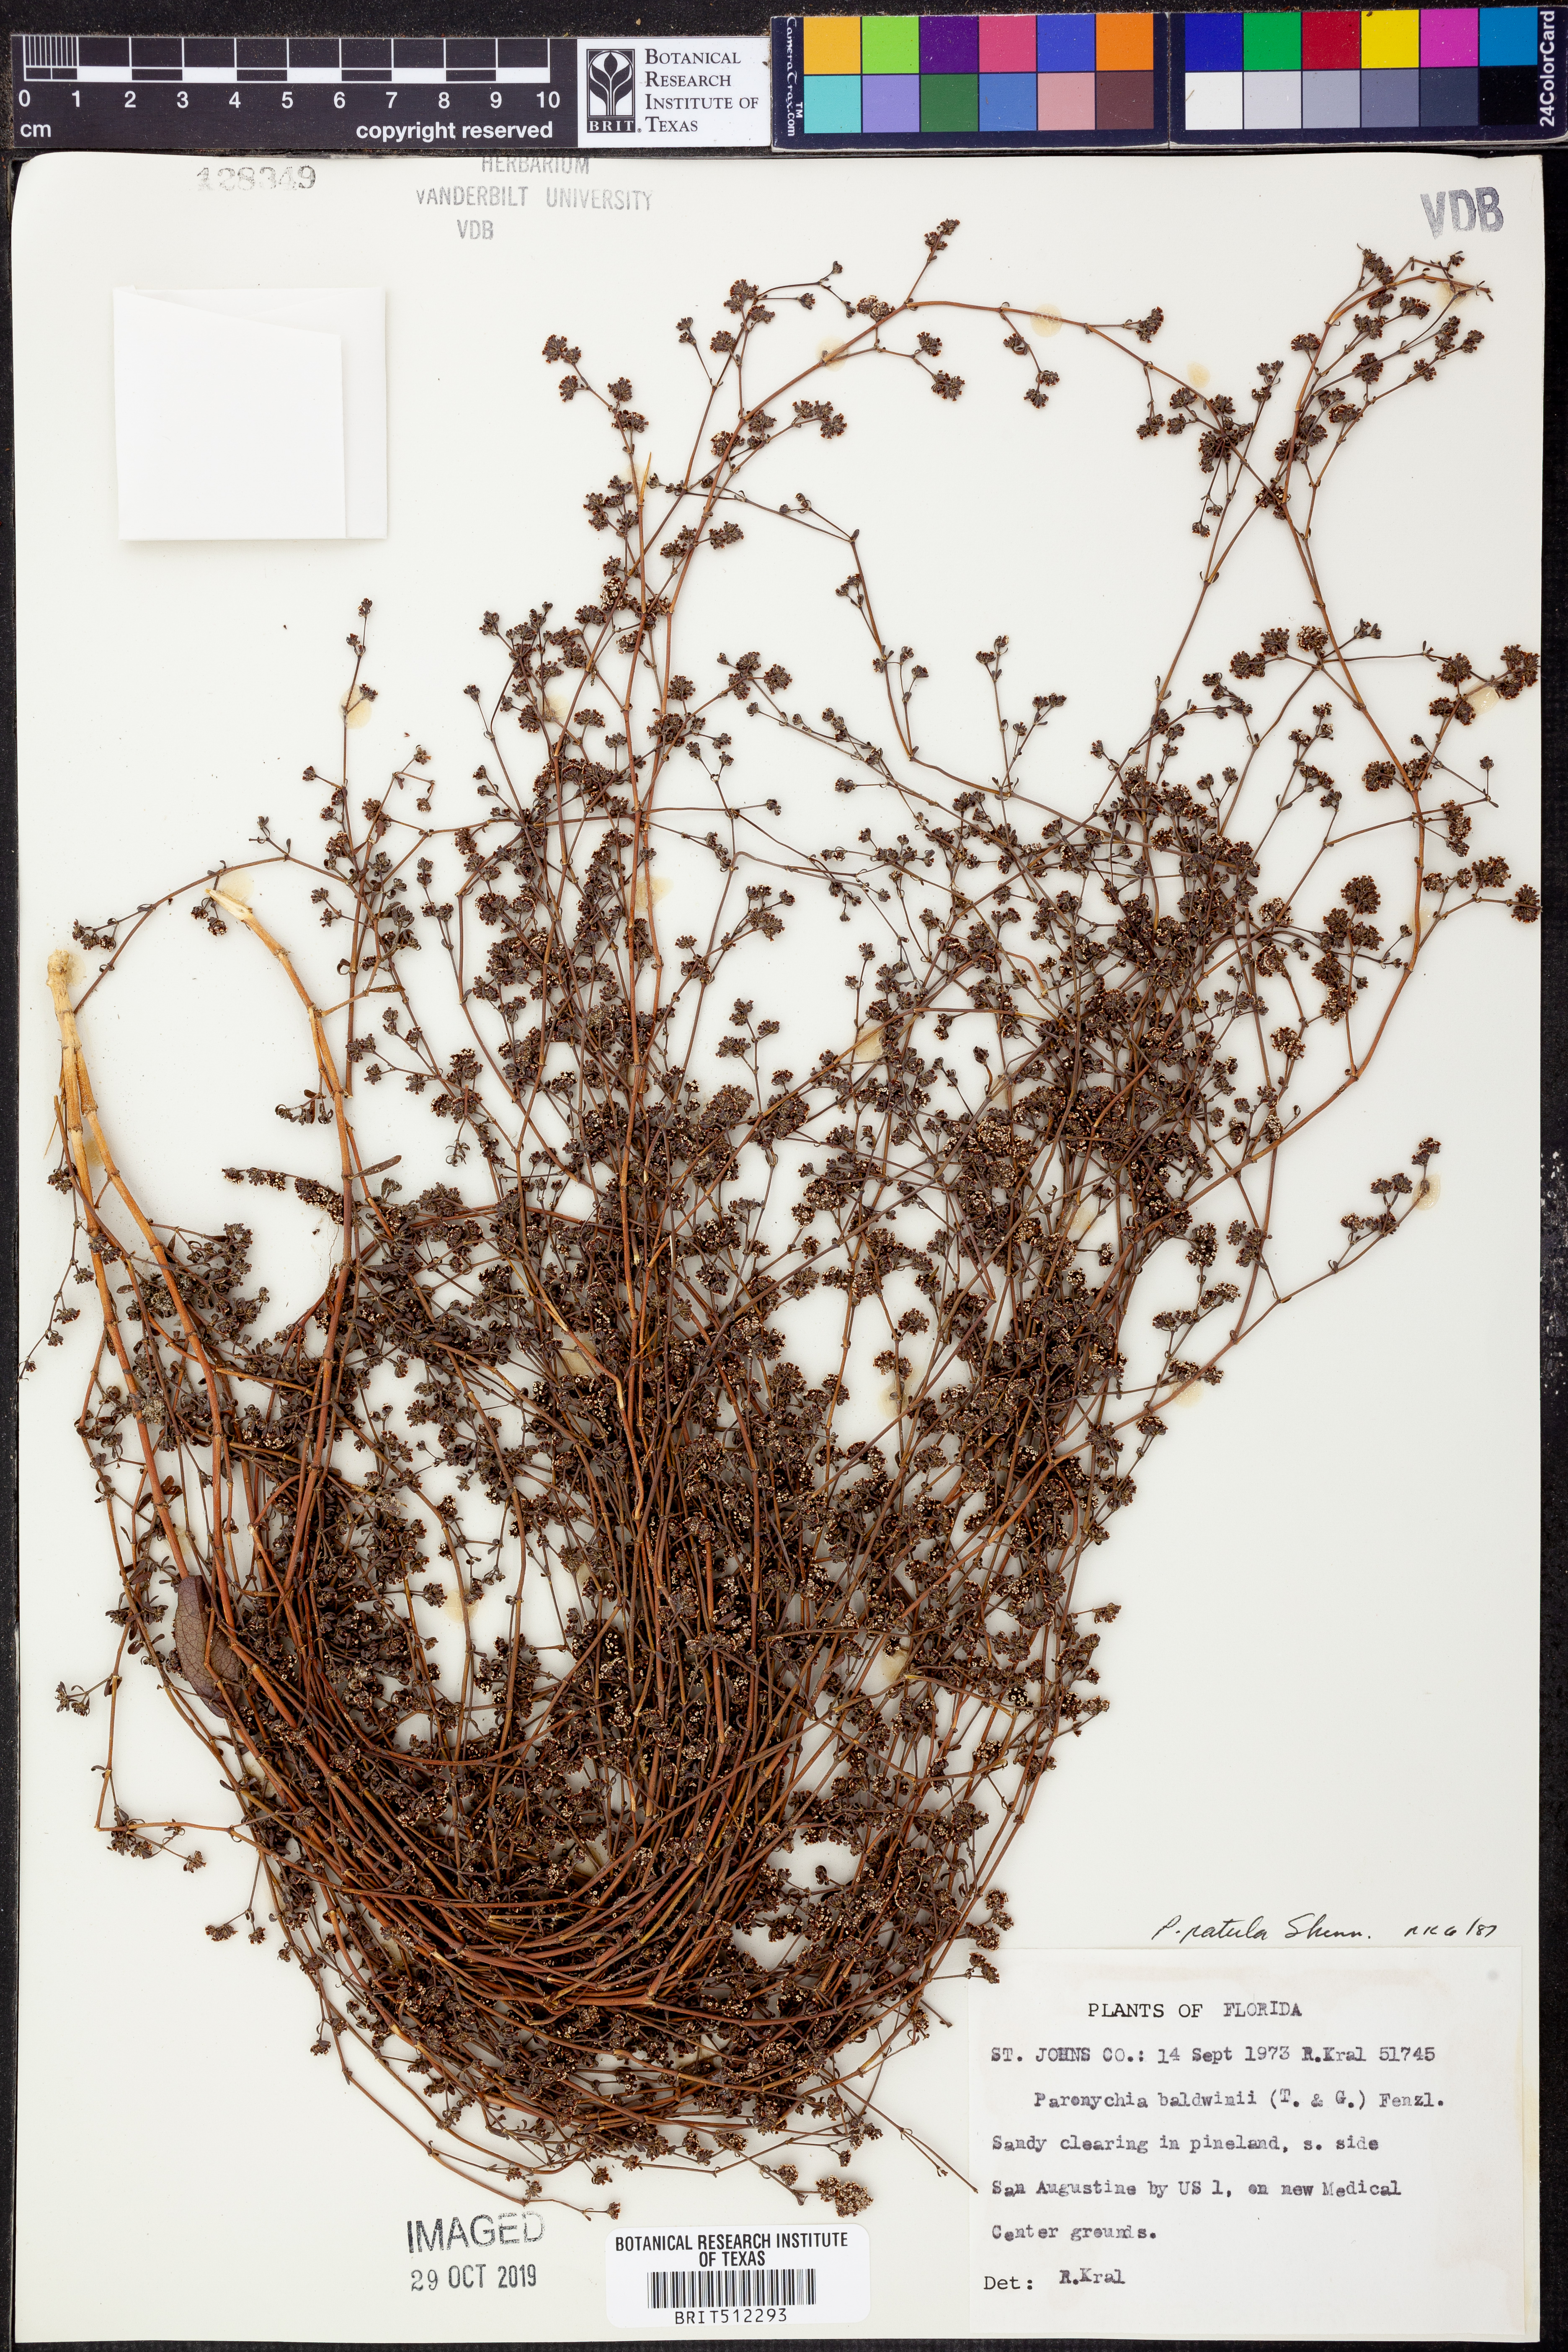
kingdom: Plantae
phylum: Tracheophyta
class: Magnoliopsida
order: Caryophyllales
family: Caryophyllaceae
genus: Paronychia
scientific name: Paronychia patula
